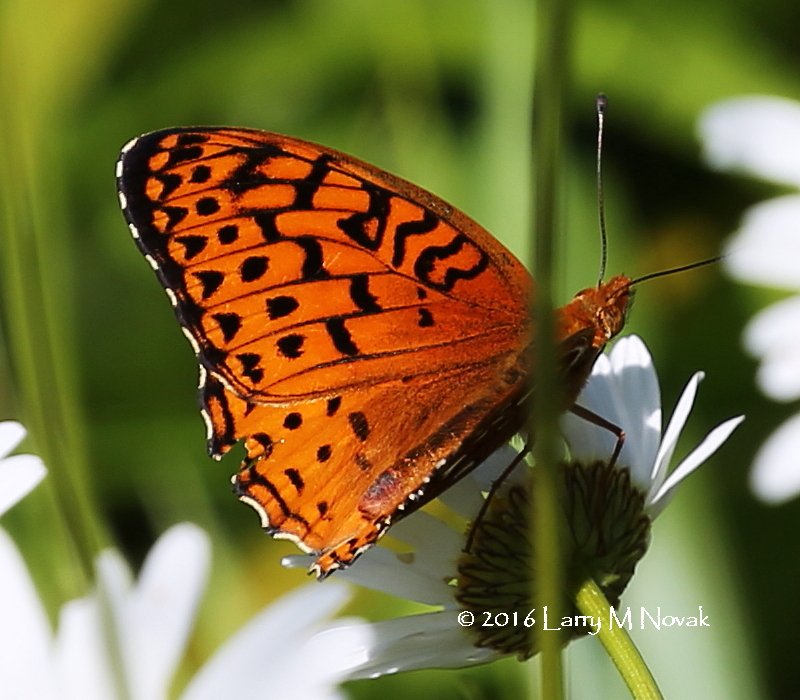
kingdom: Animalia
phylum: Arthropoda
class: Insecta
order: Lepidoptera
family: Nymphalidae
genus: Speyeria
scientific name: Speyeria aphrodite
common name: Aphrodite Fritillary
